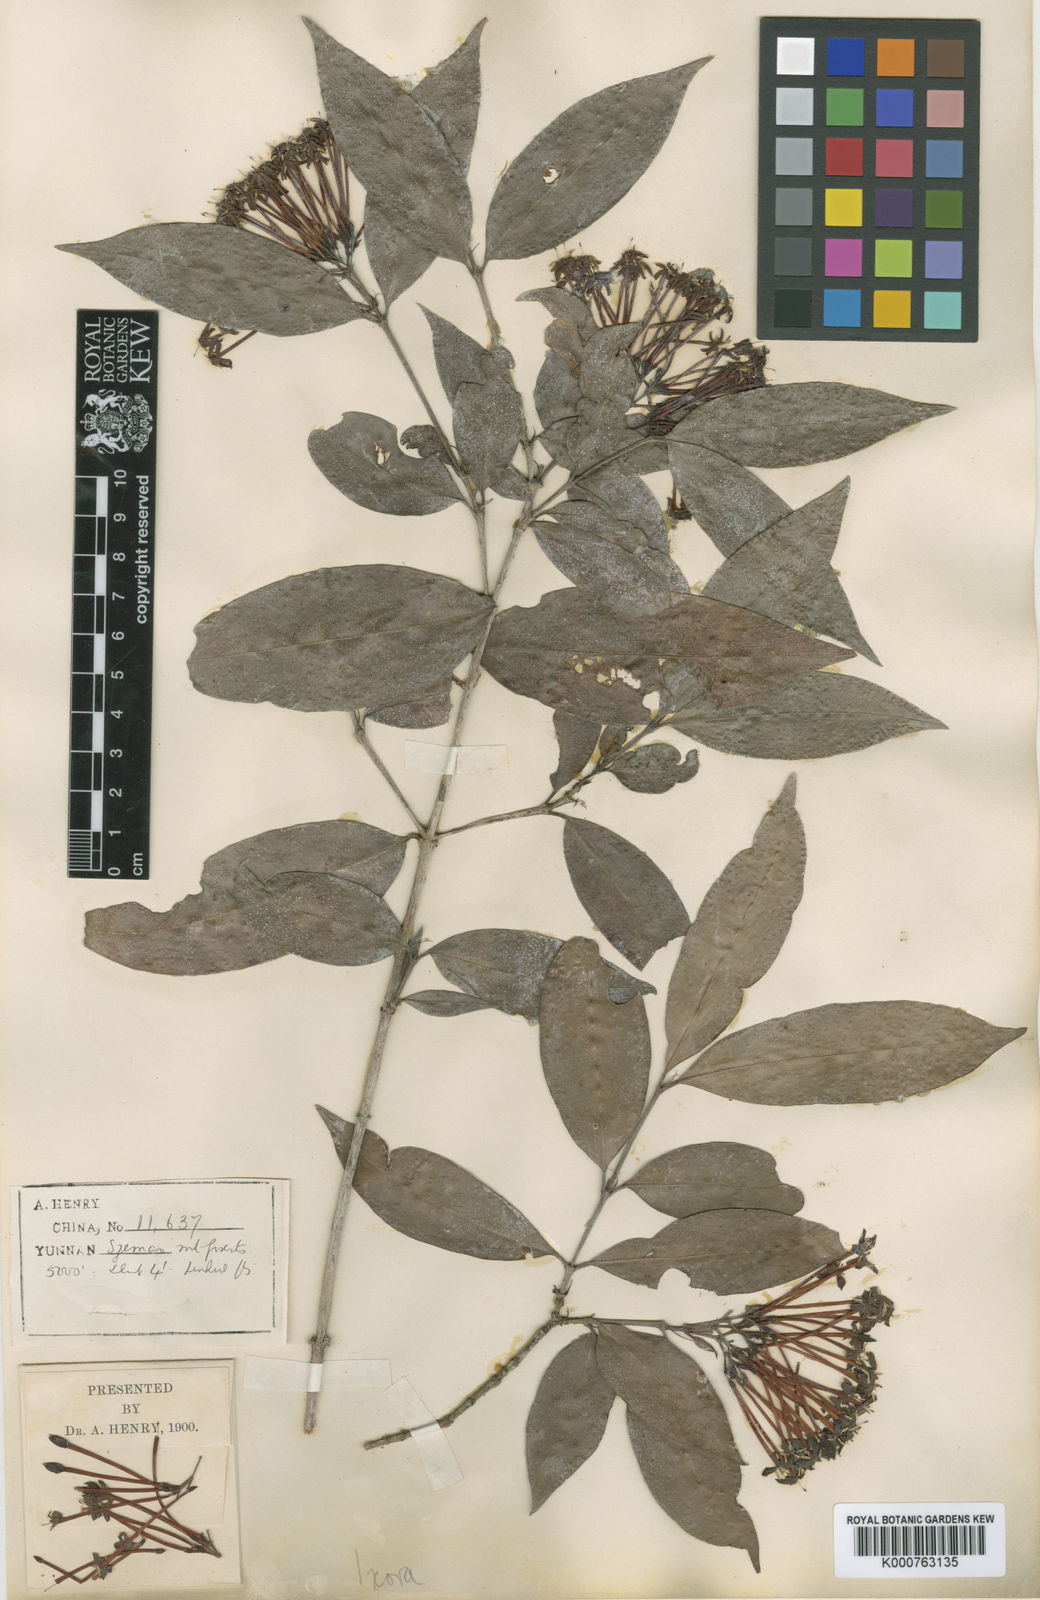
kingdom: Plantae
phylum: Tracheophyta
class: Magnoliopsida
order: Gentianales
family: Rubiaceae
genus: Ixora
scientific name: Ixora
